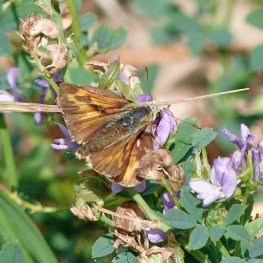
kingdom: Animalia
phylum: Arthropoda
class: Insecta
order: Lepidoptera
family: Hesperiidae
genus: Ochlodes
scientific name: Ochlodes sylvanoides
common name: Woodland Skipper
